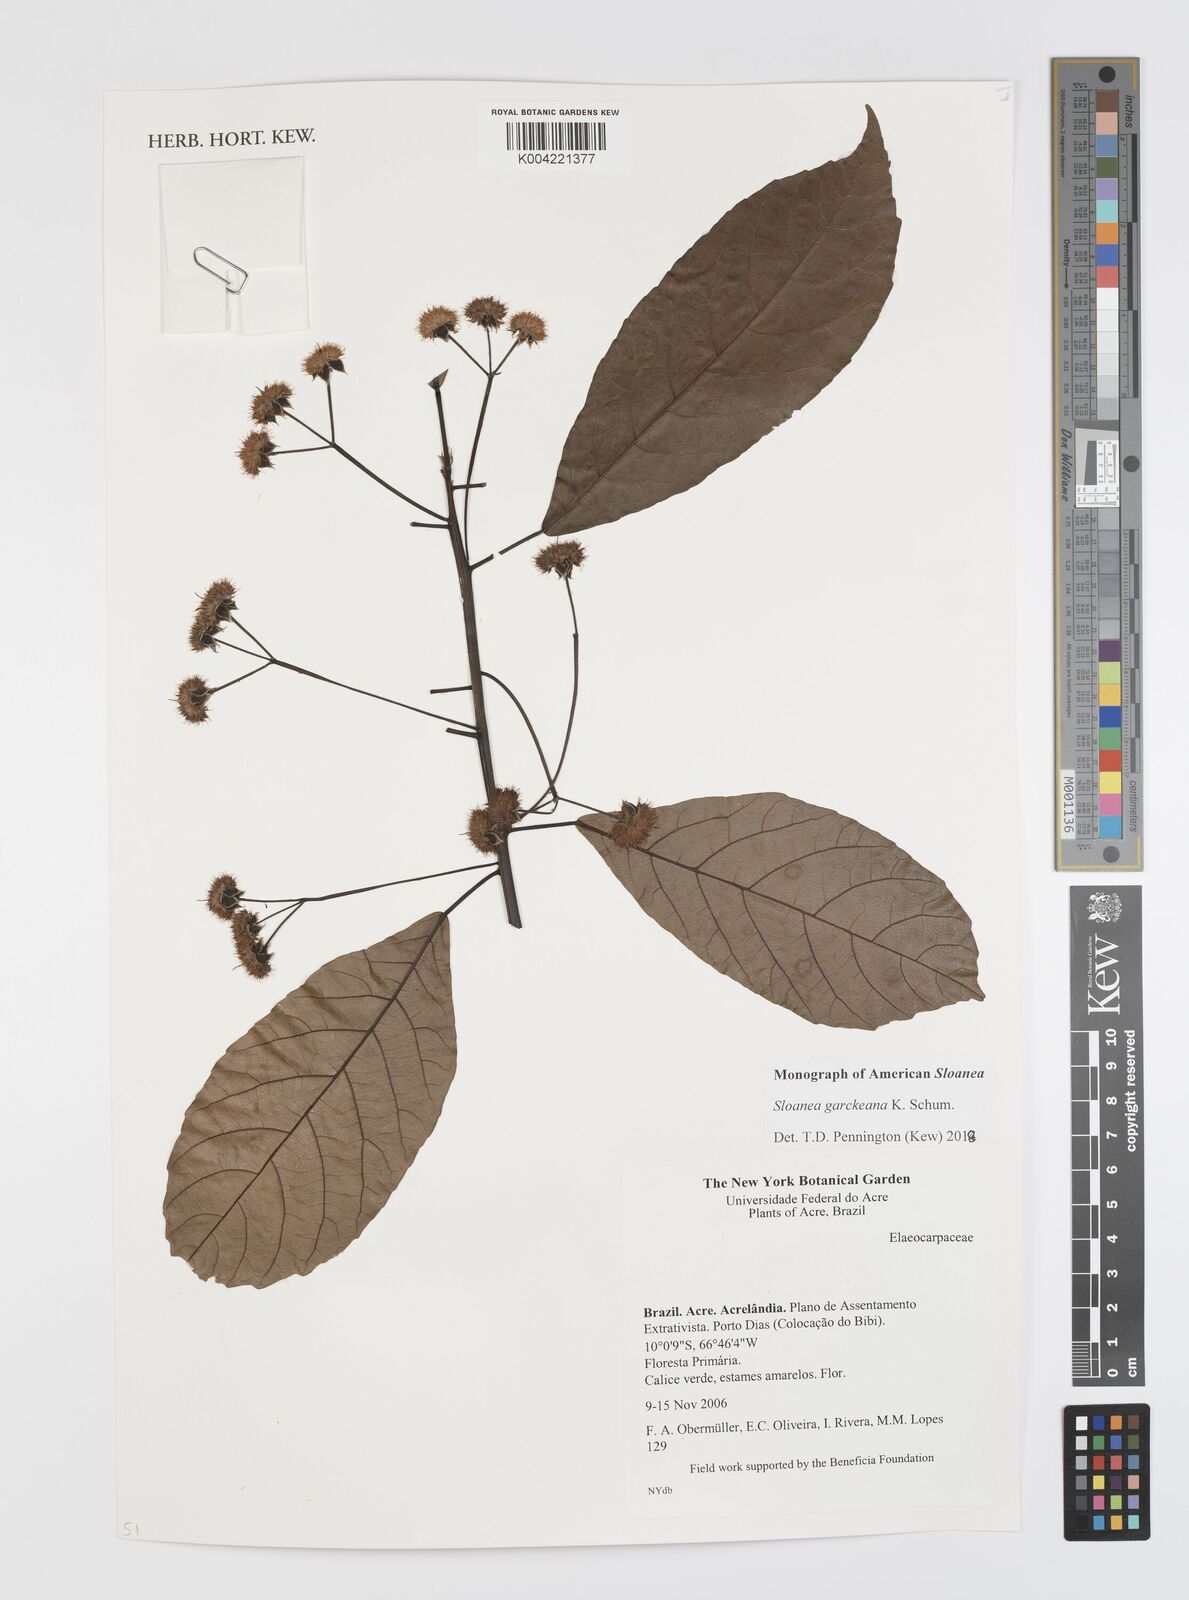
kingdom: Plantae
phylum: Tracheophyta
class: Magnoliopsida
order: Oxalidales
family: Elaeocarpaceae
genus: Sloanea
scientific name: Sloanea garckeana
